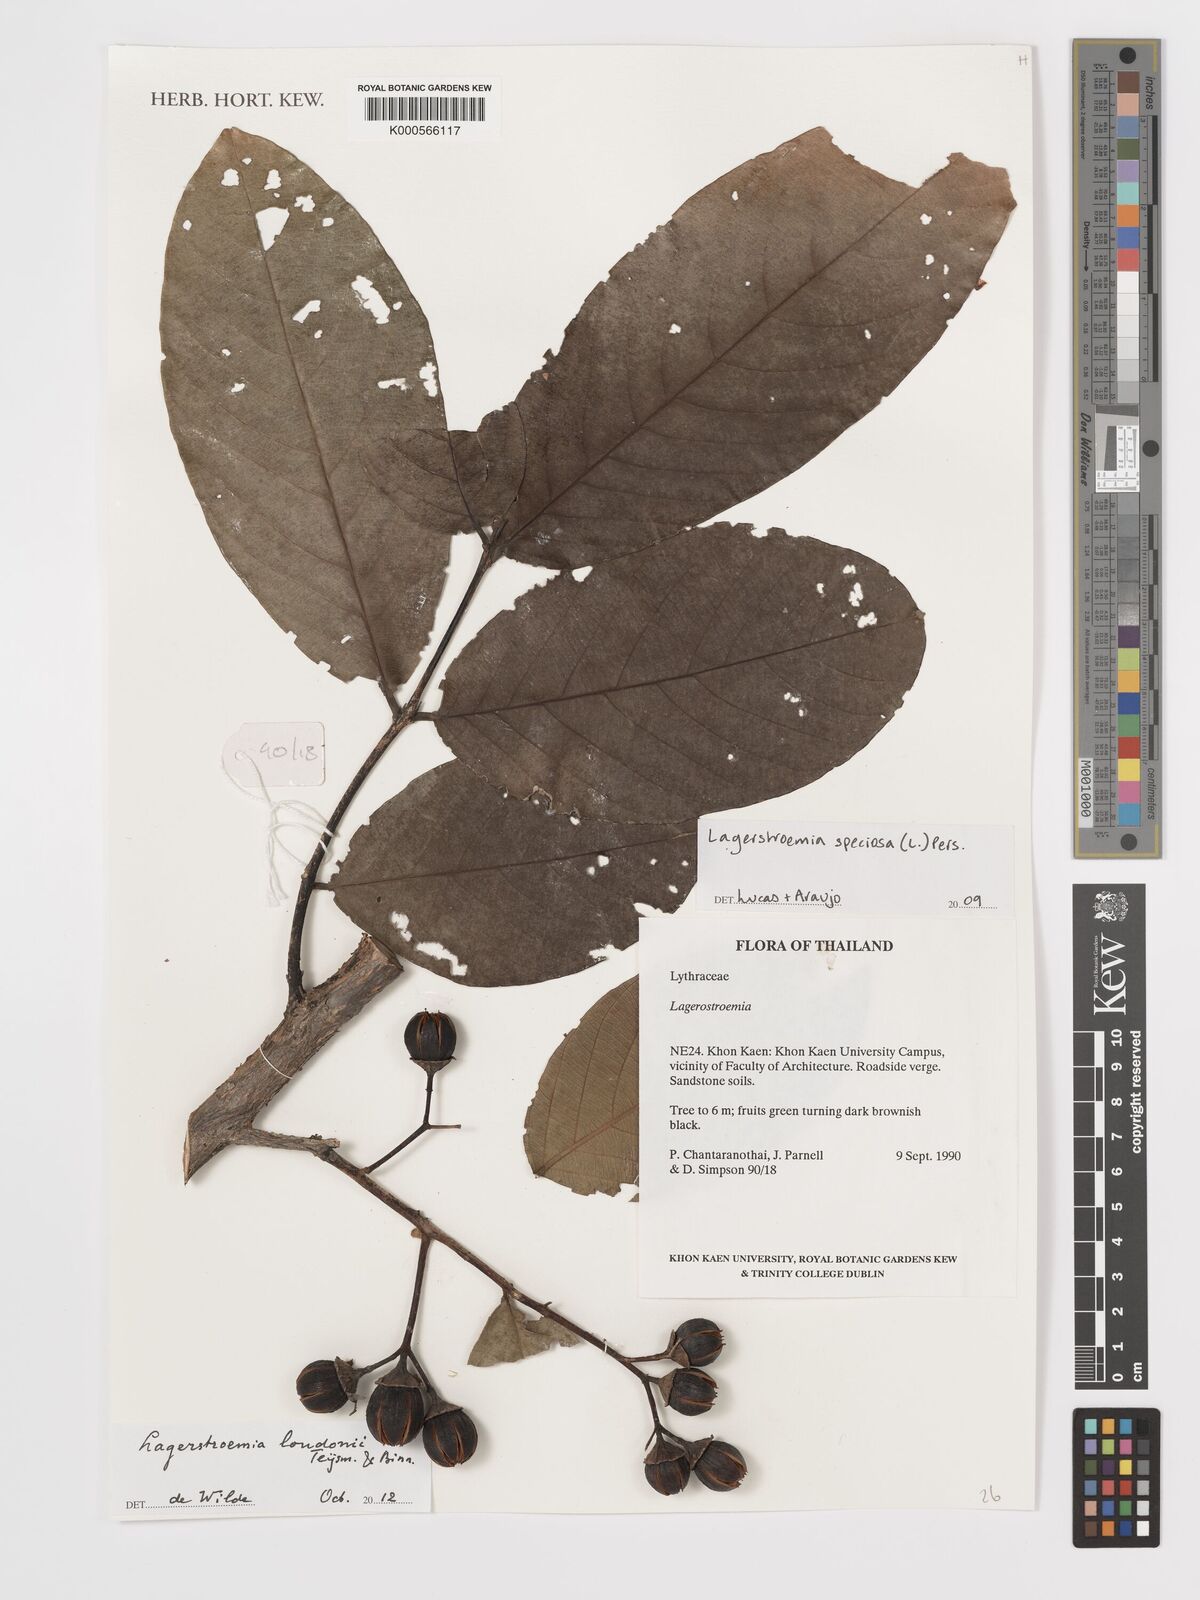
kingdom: Plantae
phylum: Tracheophyta
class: Magnoliopsida
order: Myrtales
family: Lythraceae
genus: Lagerstroemia
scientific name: Lagerstroemia speciosa
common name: Queen's crape-myrtle
